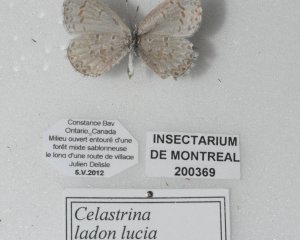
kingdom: Animalia
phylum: Arthropoda
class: Insecta
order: Lepidoptera
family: Lycaenidae
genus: Celastrina
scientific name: Celastrina lucia
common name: Northern Spring Azure
